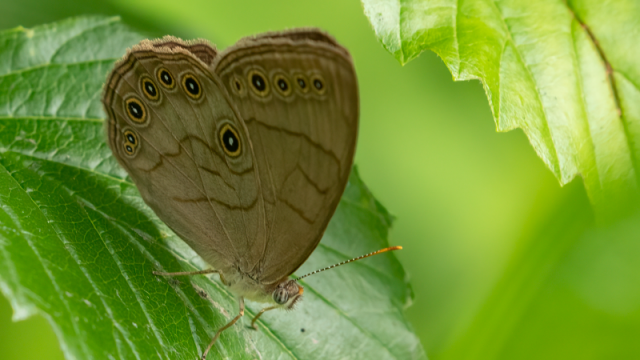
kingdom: Animalia
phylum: Arthropoda
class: Insecta
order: Lepidoptera
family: Nymphalidae
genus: Lethe
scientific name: Lethe eurydice
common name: Appalachian Eyed Brown
